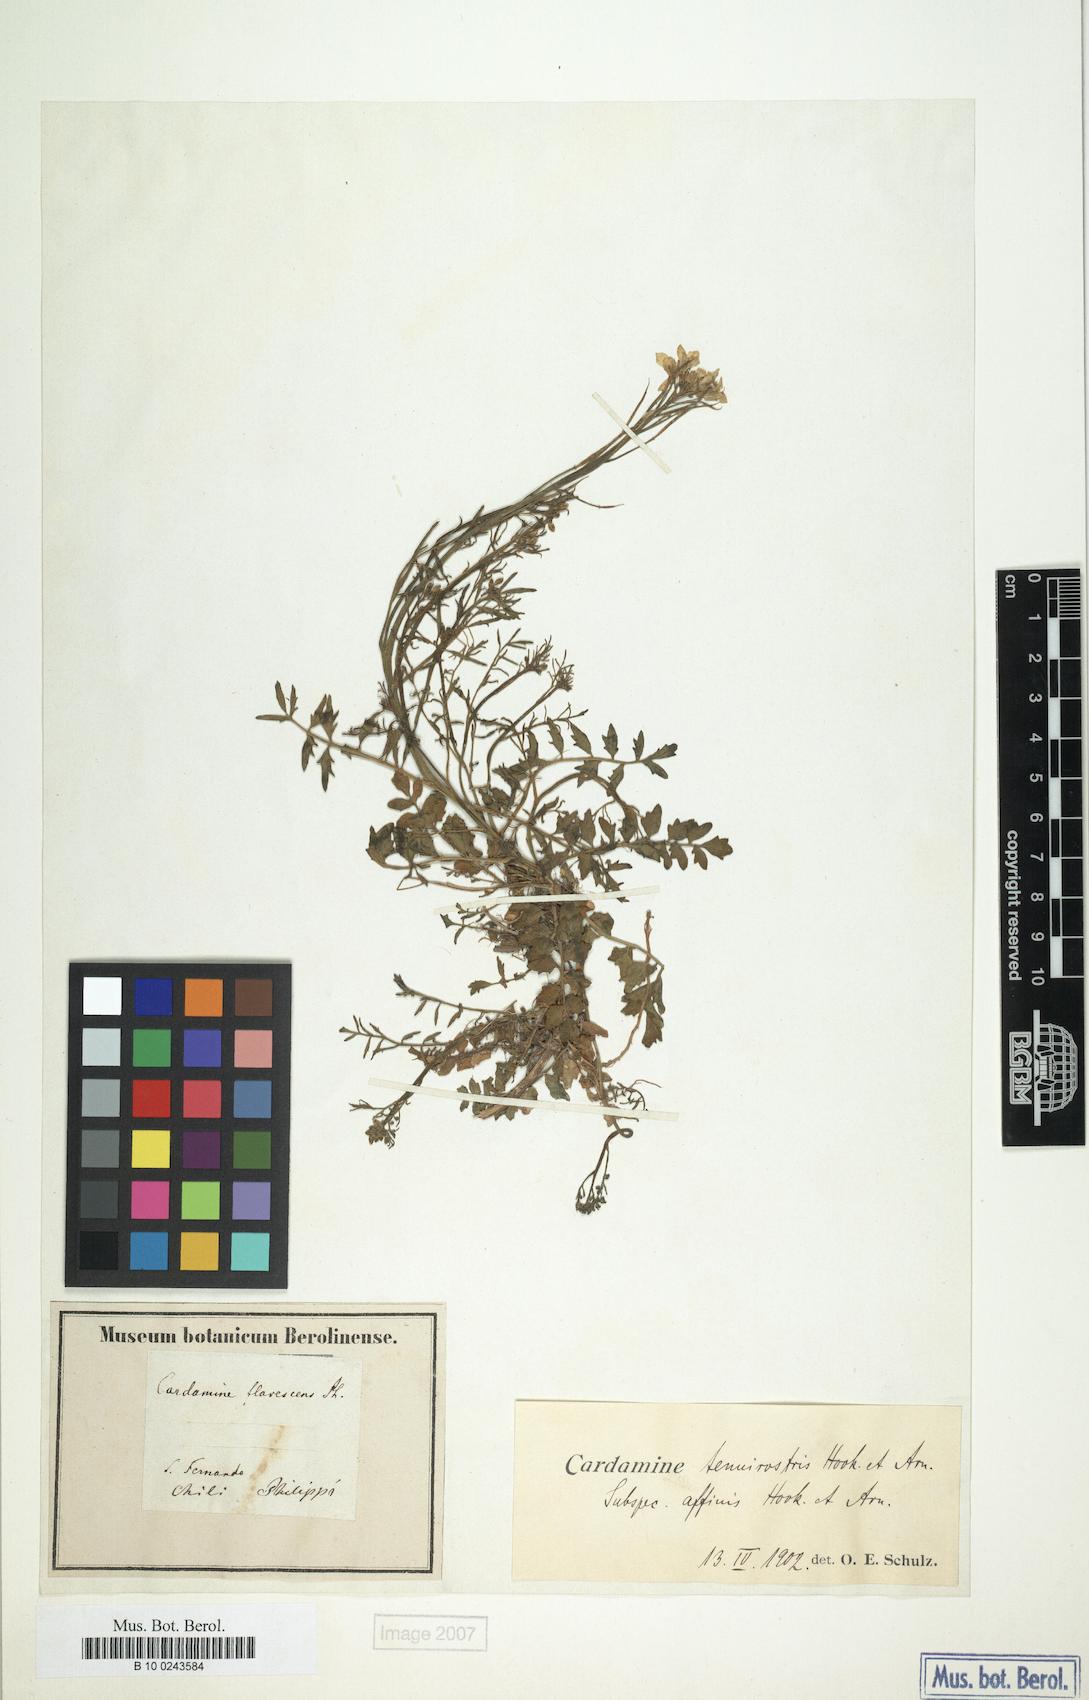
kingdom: Plantae
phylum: Tracheophyta
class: Magnoliopsida
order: Brassicales
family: Brassicaceae
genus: Cardamine
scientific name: Cardamine tenuirostris
